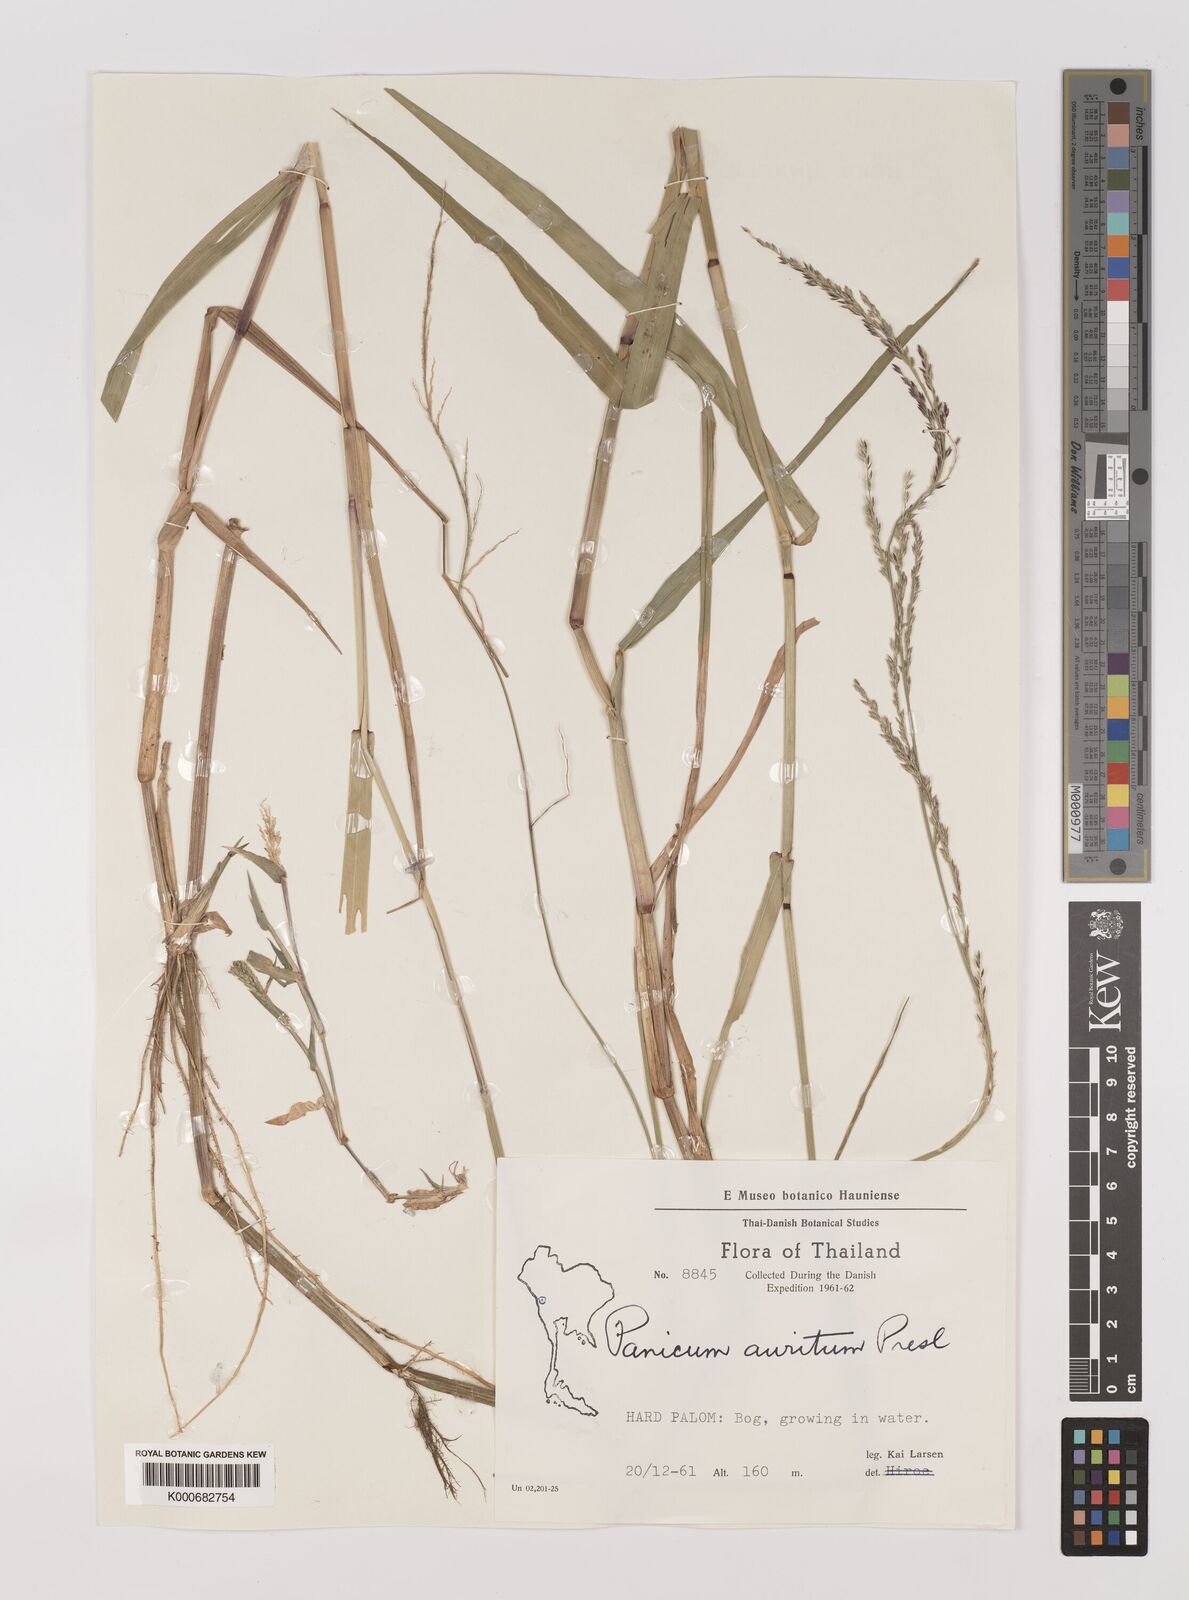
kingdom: Plantae
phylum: Tracheophyta
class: Liliopsida
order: Poales
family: Poaceae
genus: Hymenachne
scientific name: Hymenachne aurita
